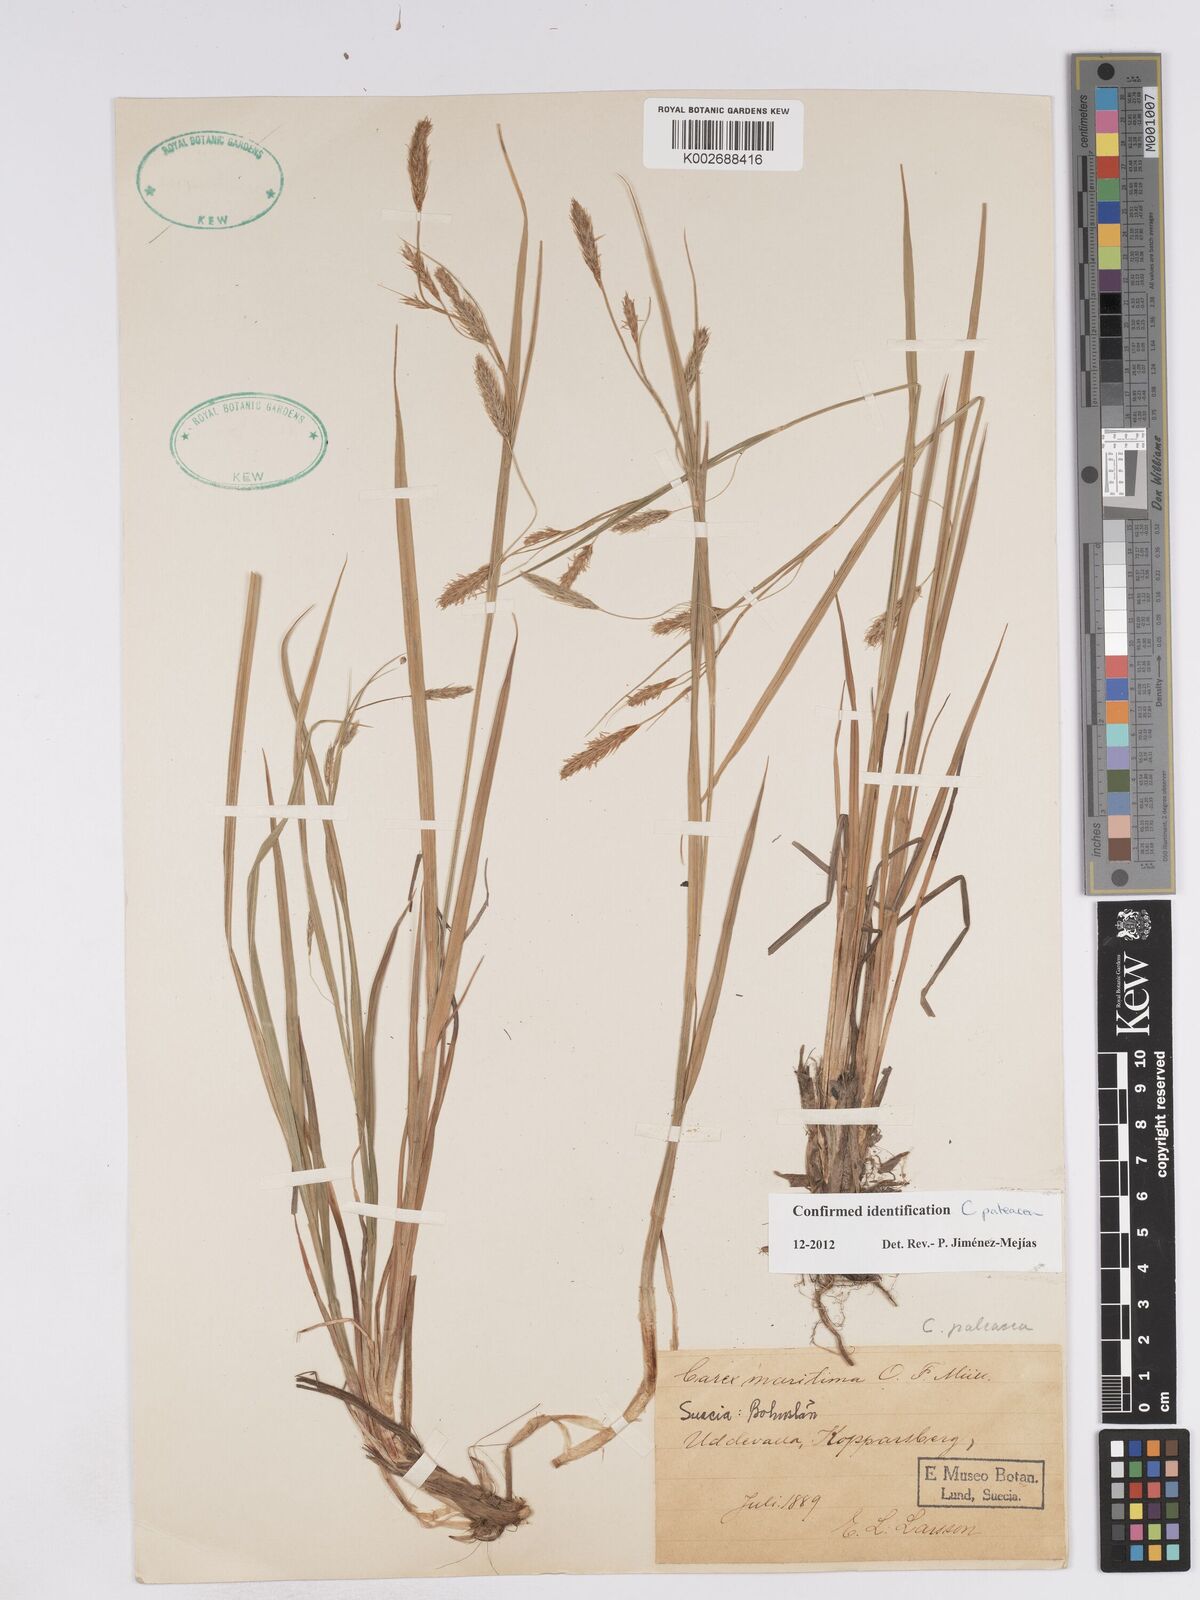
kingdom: Plantae
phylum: Tracheophyta
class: Liliopsida
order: Poales
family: Cyperaceae
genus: Carex
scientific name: Carex paleacea
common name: Chaffy sedge
